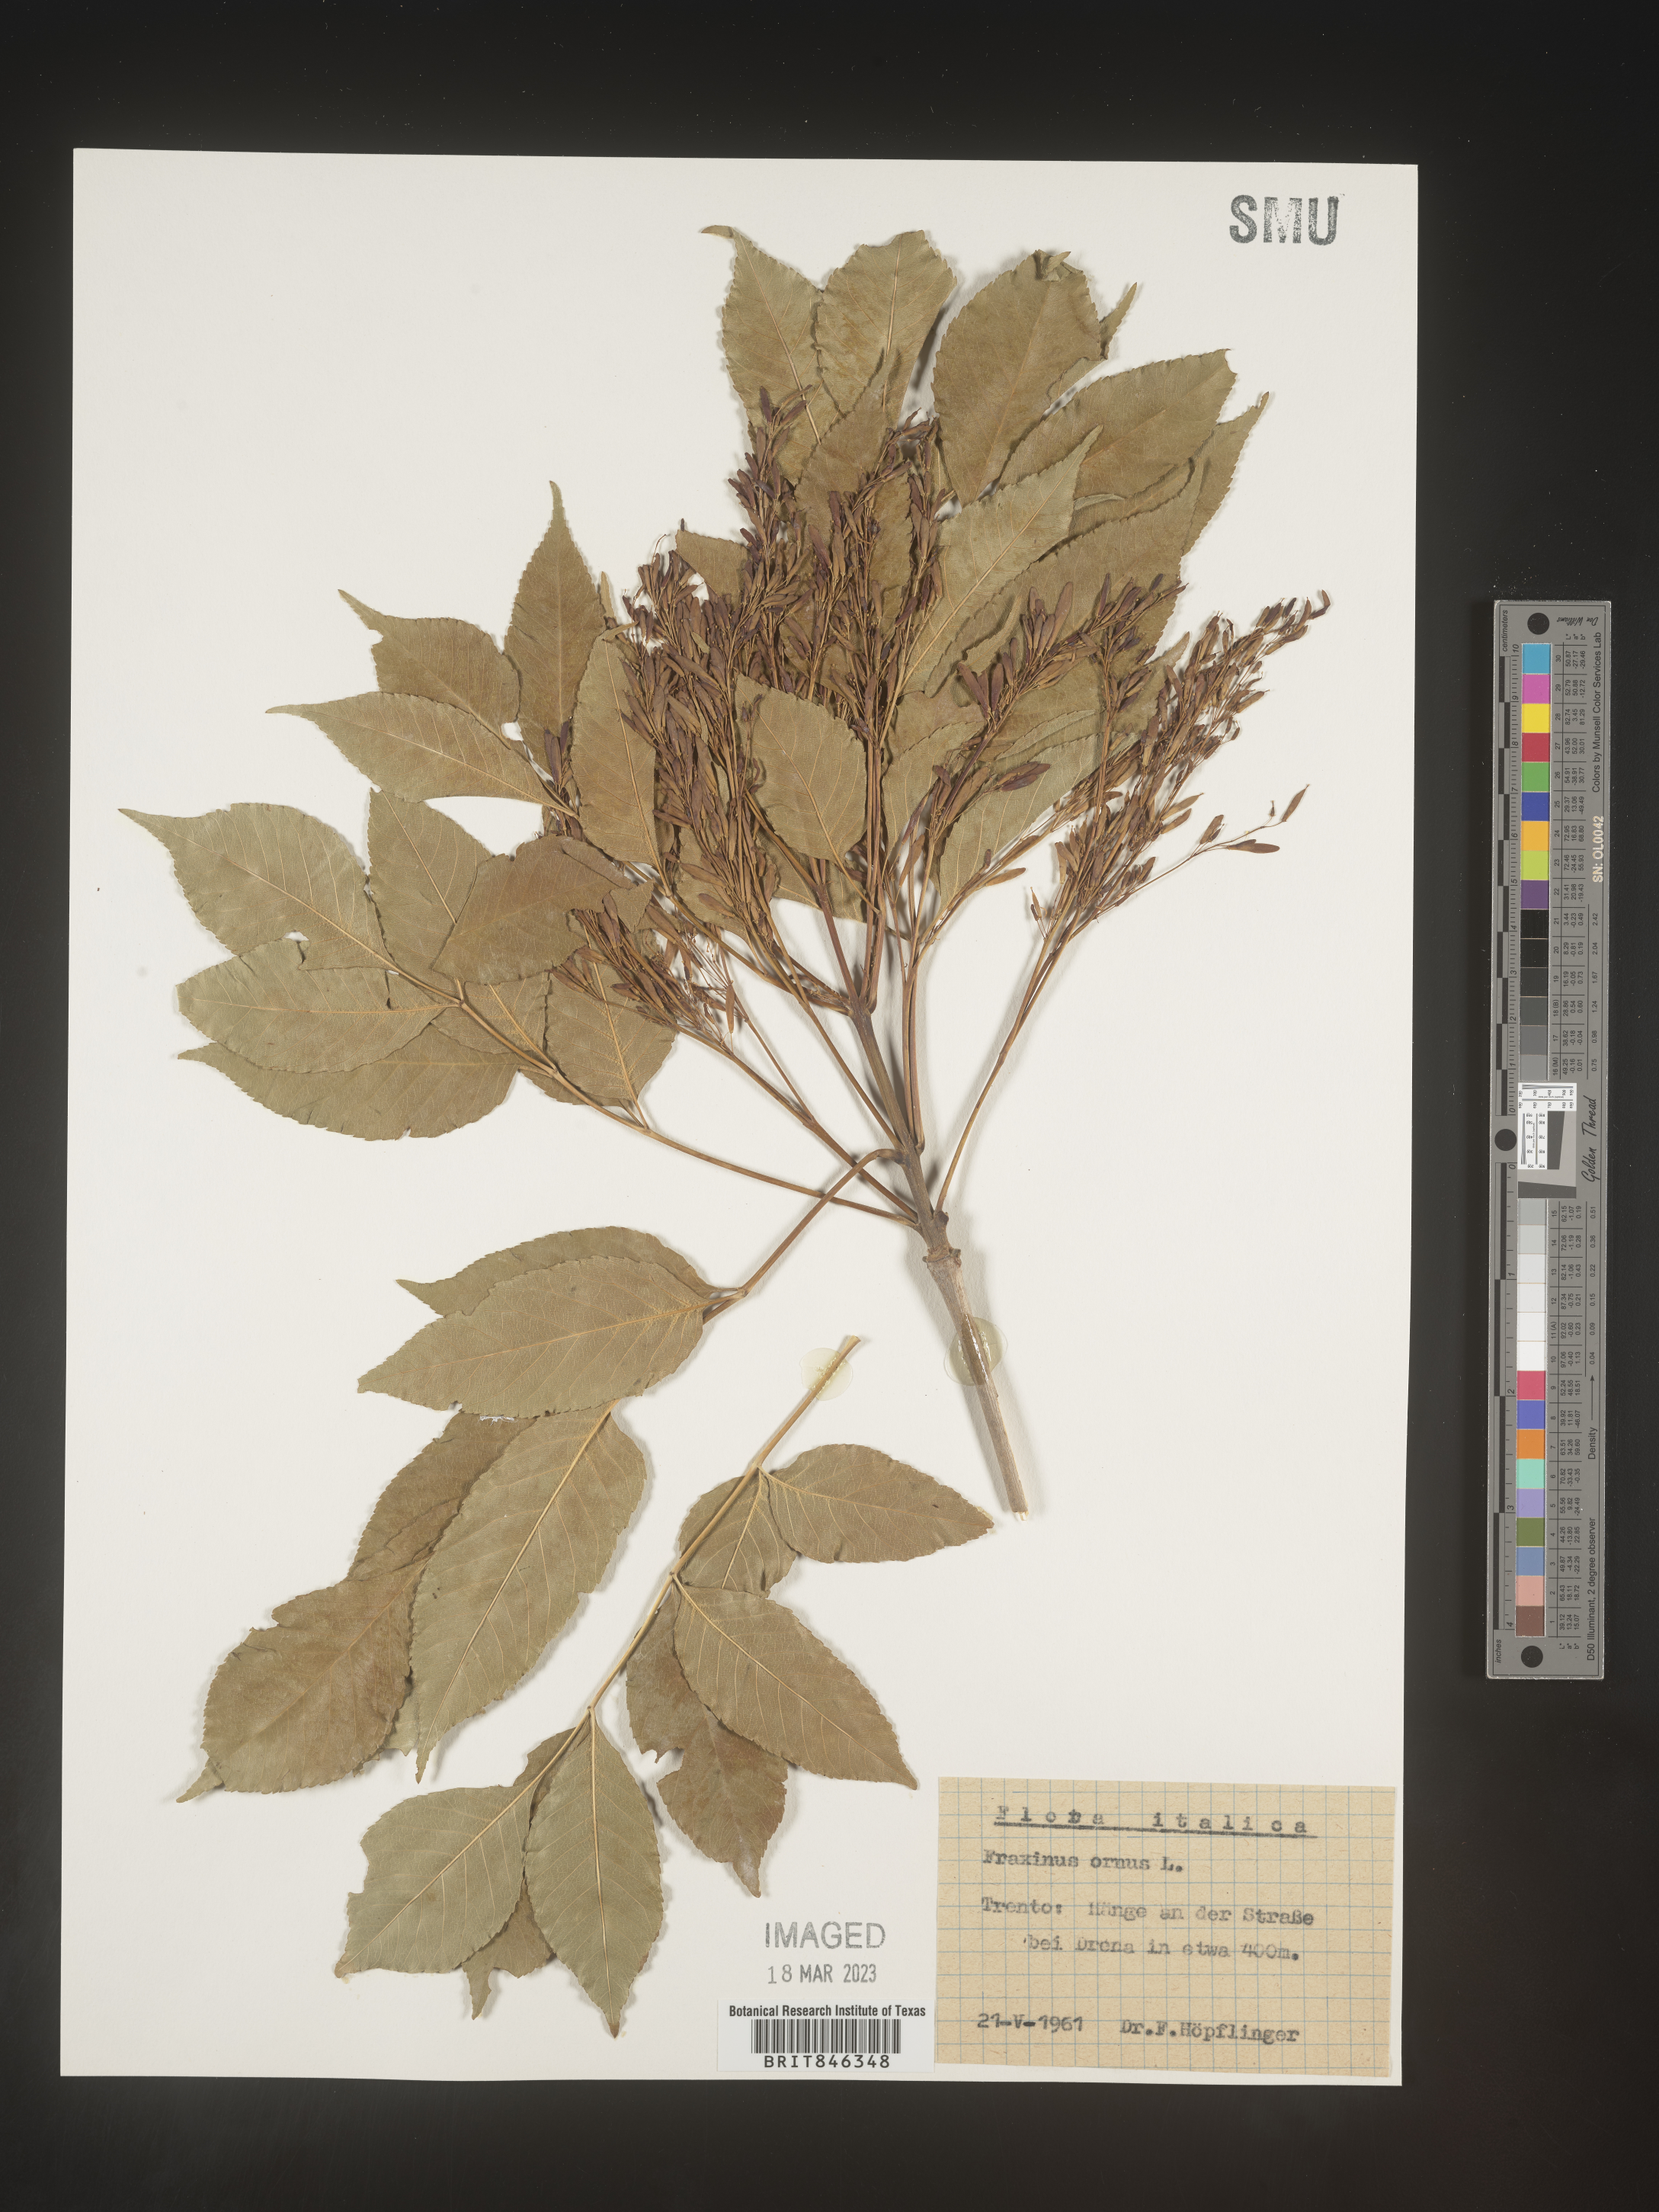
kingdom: Plantae
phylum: Tracheophyta
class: Magnoliopsida
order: Lamiales
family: Oleaceae
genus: Fraxinus
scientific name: Fraxinus
